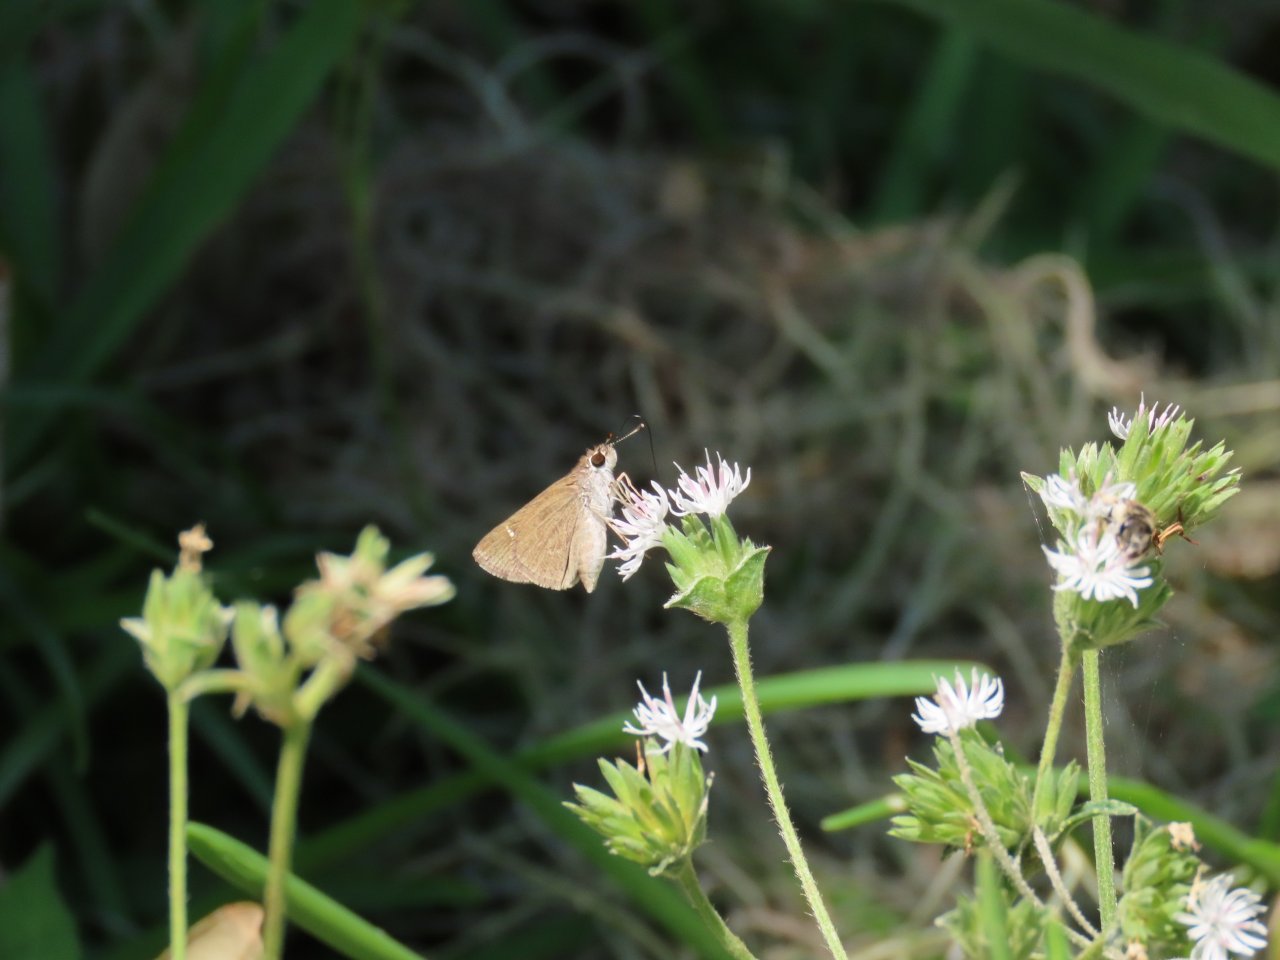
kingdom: Animalia
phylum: Arthropoda
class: Insecta
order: Lepidoptera
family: Hesperiidae
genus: Lerodea
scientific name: Lerodea eufala
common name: Eufala Skipper
